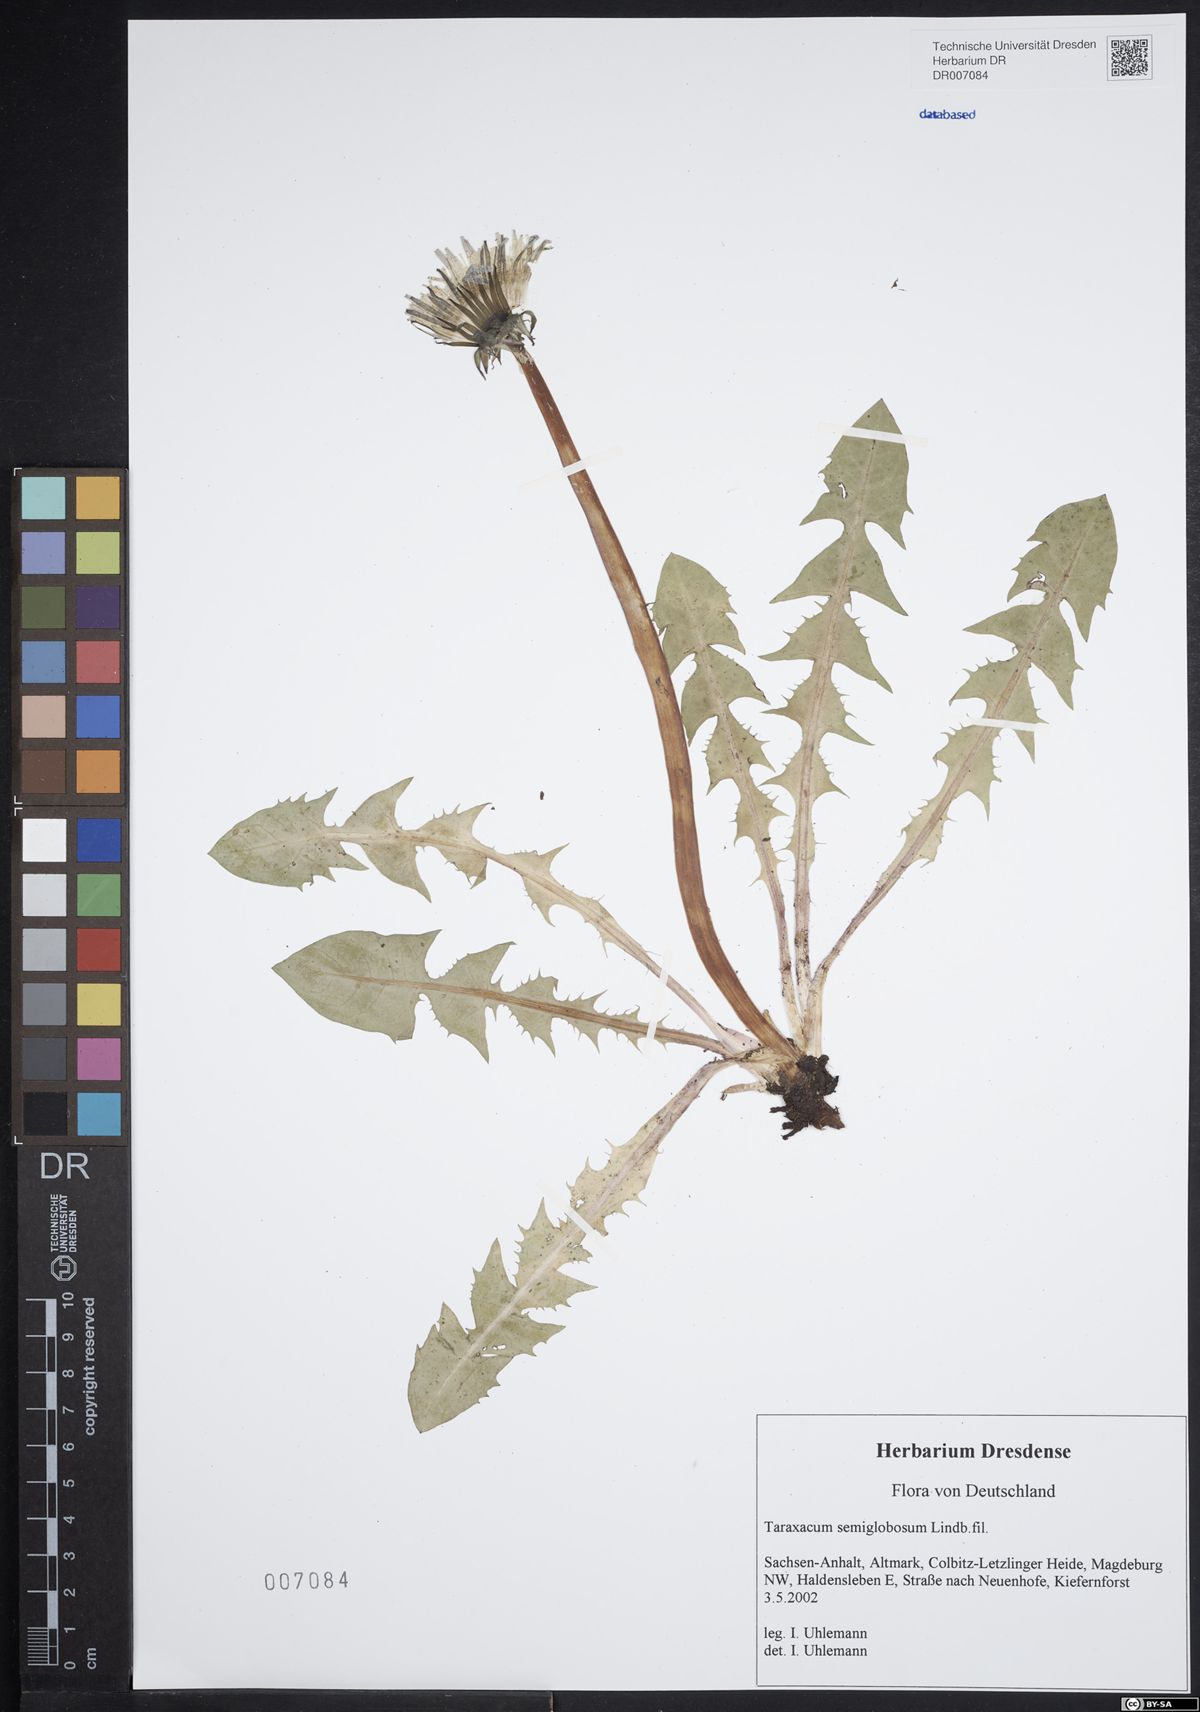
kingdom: Plantae
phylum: Tracheophyta
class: Magnoliopsida
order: Asterales
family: Asteraceae
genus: Taraxacum
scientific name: Taraxacum semiglobosum
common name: Hairy-ribbed dandelion
